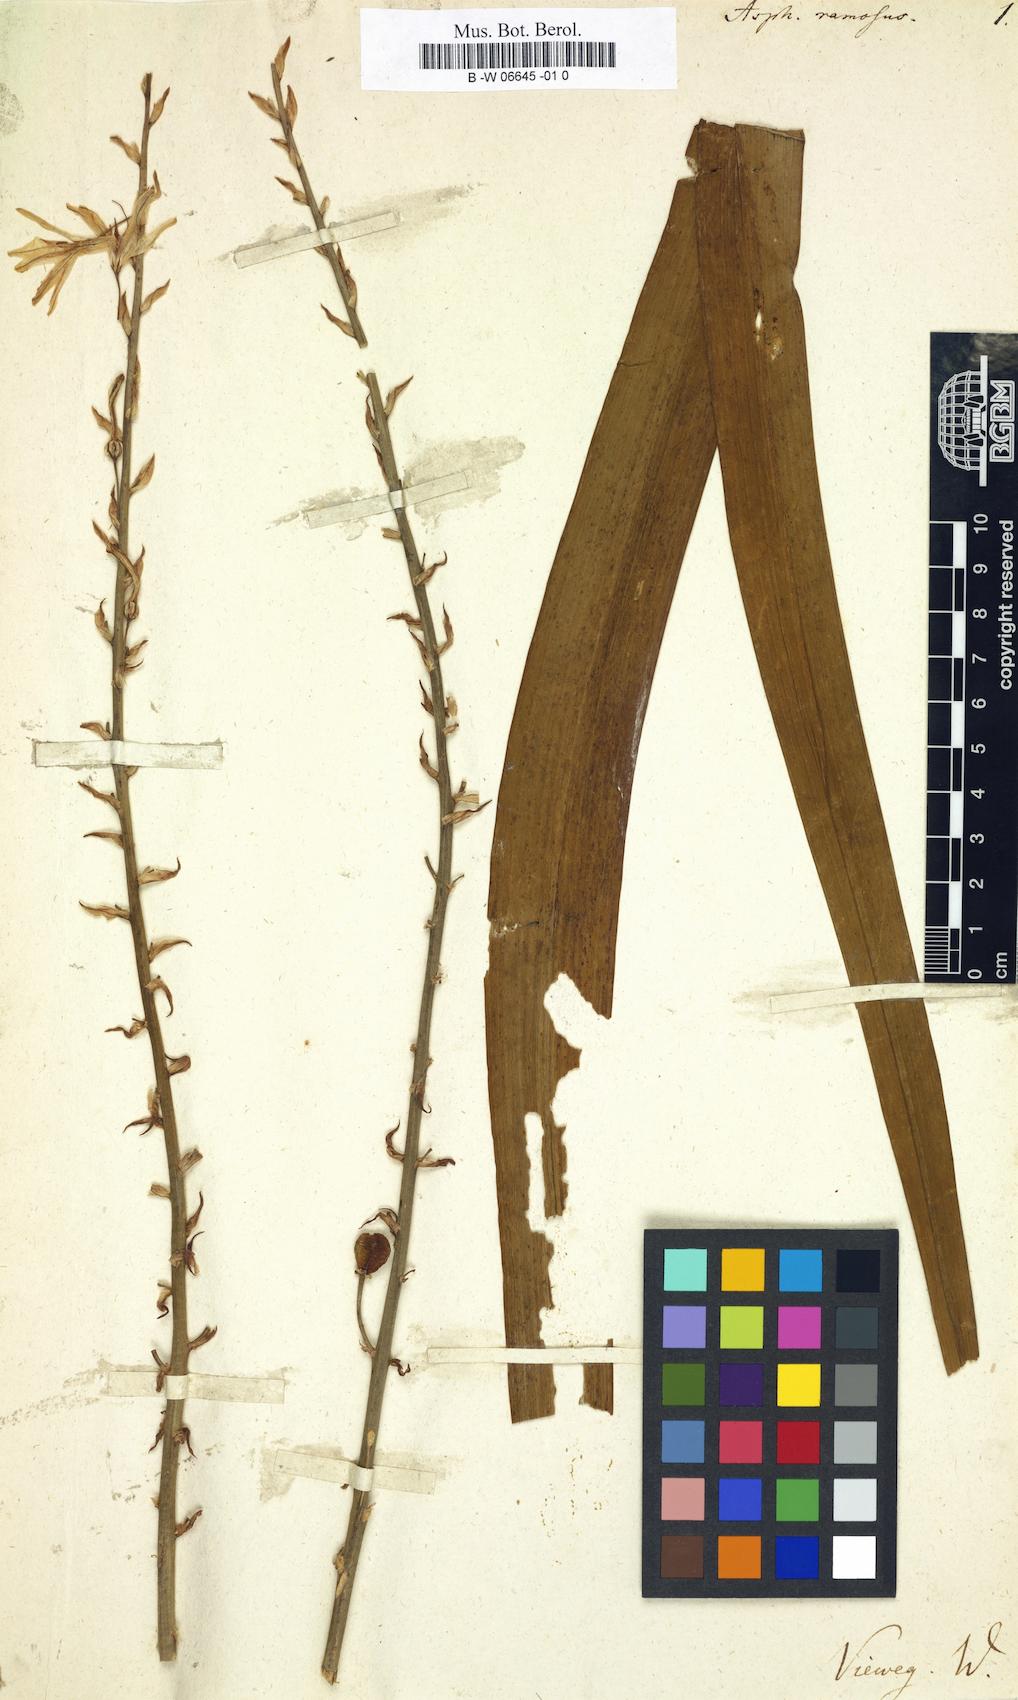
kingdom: Plantae
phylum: Tracheophyta
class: Liliopsida
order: Asparagales
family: Asphodelaceae
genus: Asphodelus
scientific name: Asphodelus ramosus
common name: Silverrod
